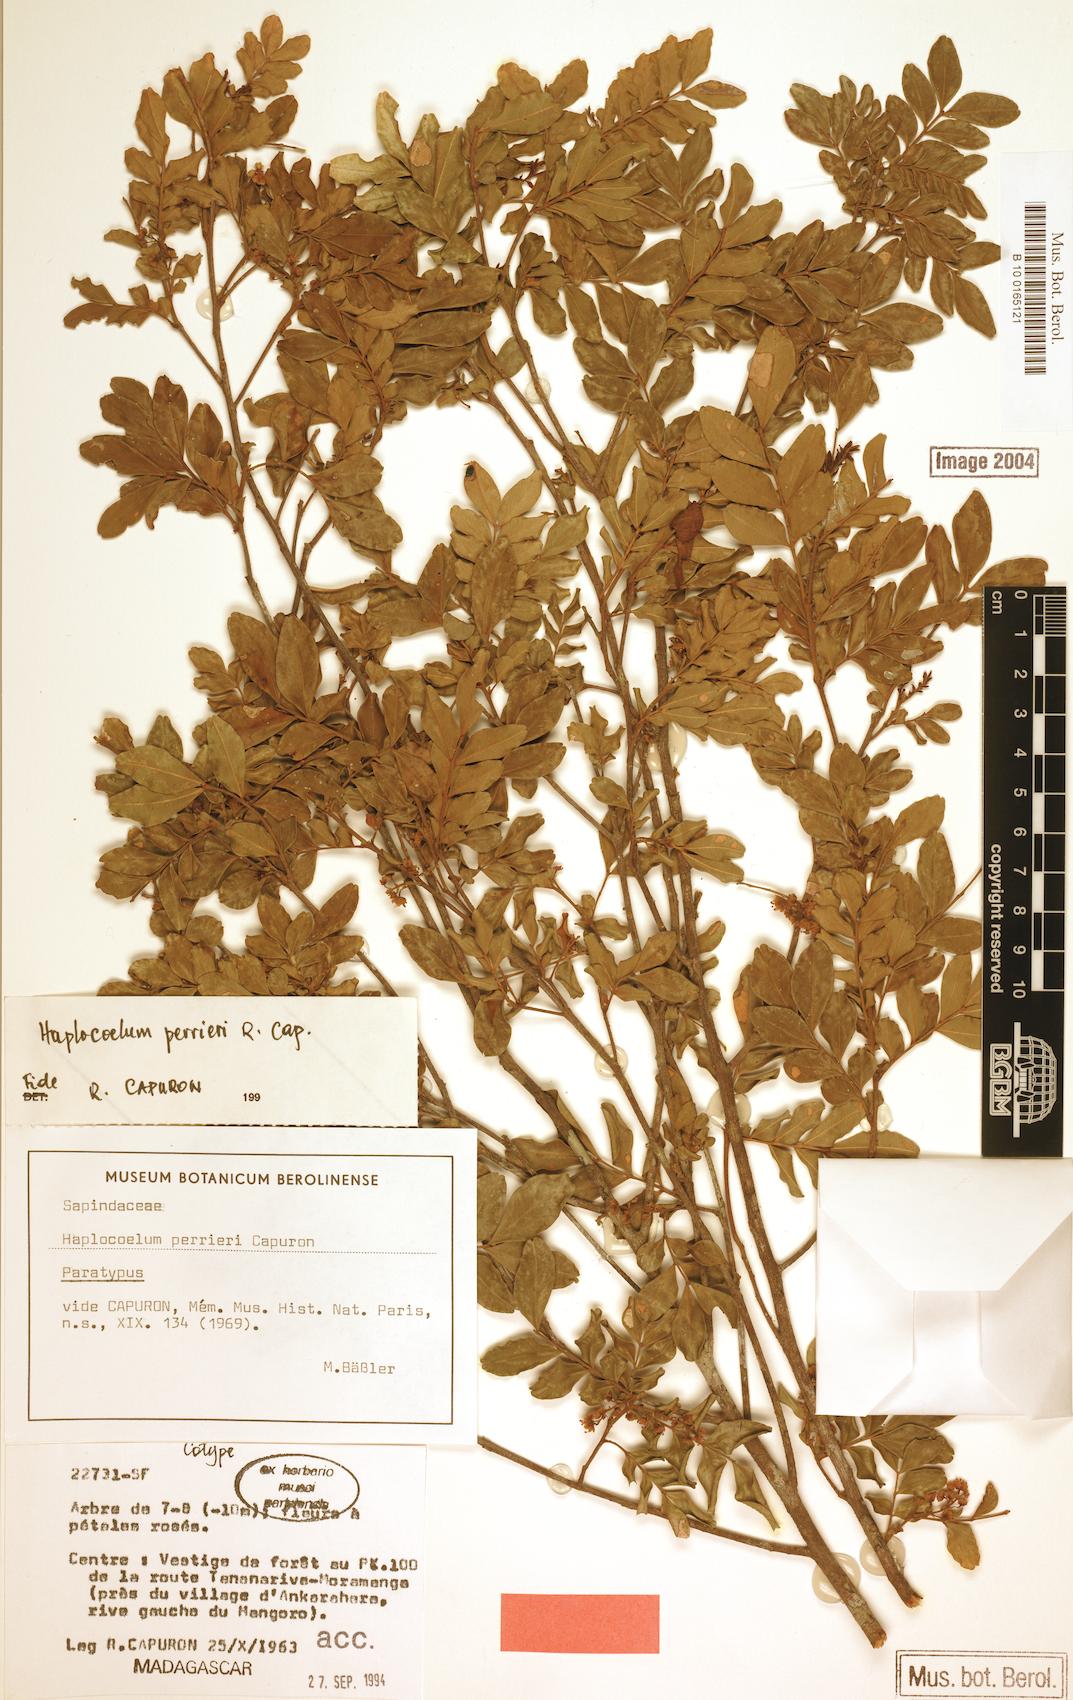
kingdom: Plantae
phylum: Tracheophyta
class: Magnoliopsida
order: Sapindales
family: Sapindaceae
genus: Gereaua
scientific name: Gereaua perrieri
